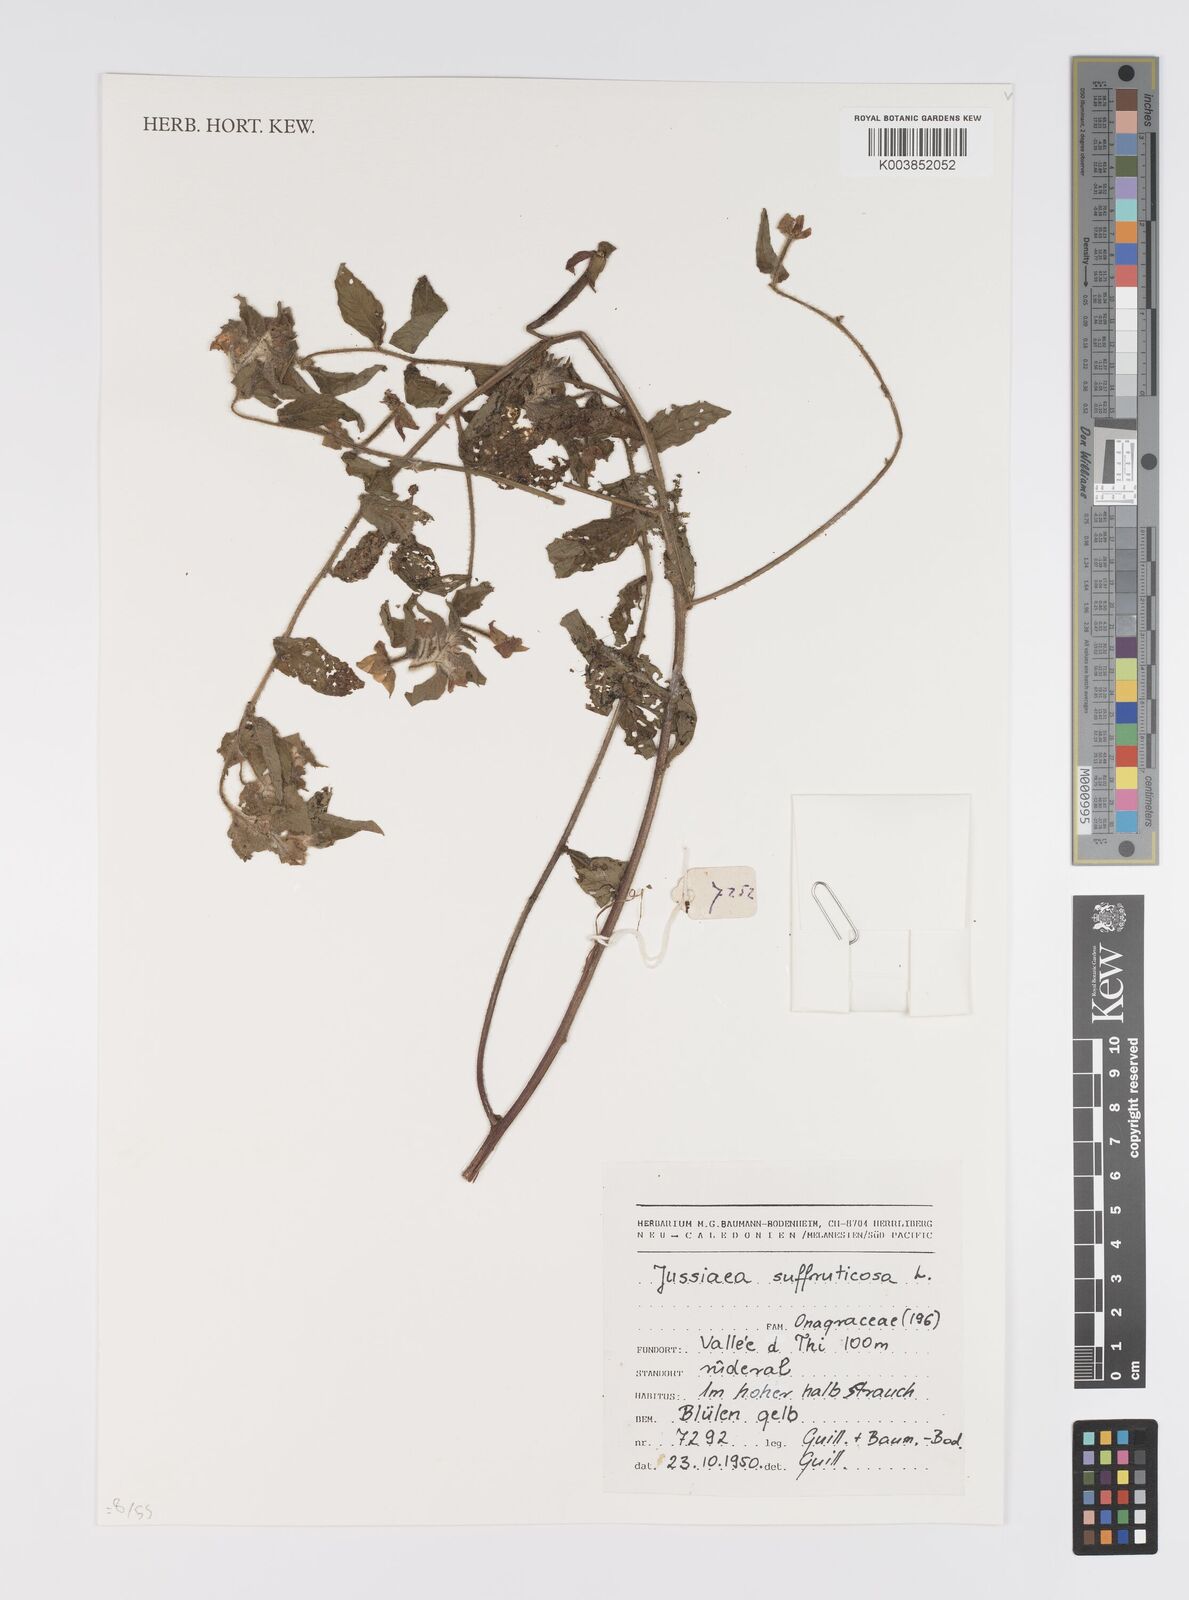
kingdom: Plantae
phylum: Tracheophyta
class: Magnoliopsida
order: Myrtales
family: Onagraceae
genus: Ludwigia
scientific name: Ludwigia octovalvis
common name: Water-primrose
